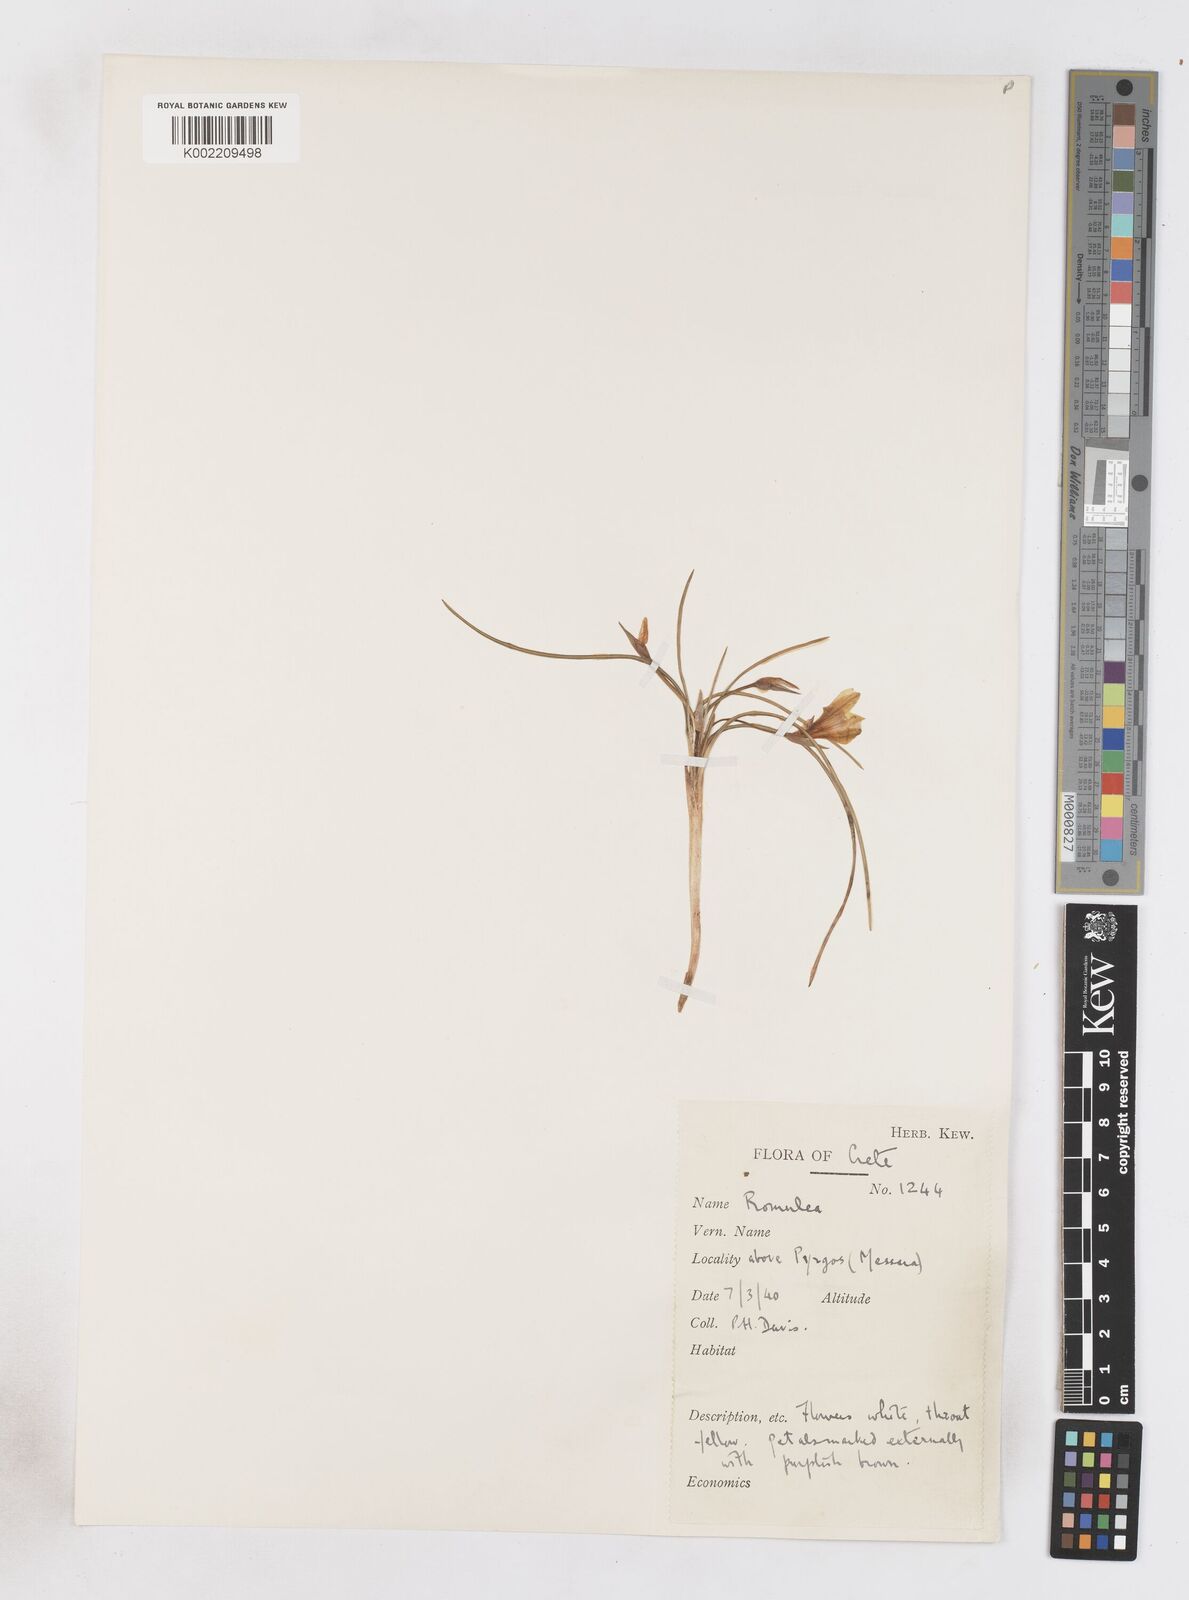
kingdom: Plantae
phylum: Tracheophyta
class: Liliopsida
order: Asparagales
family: Iridaceae
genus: Romulea
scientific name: Romulea bulbocodium
